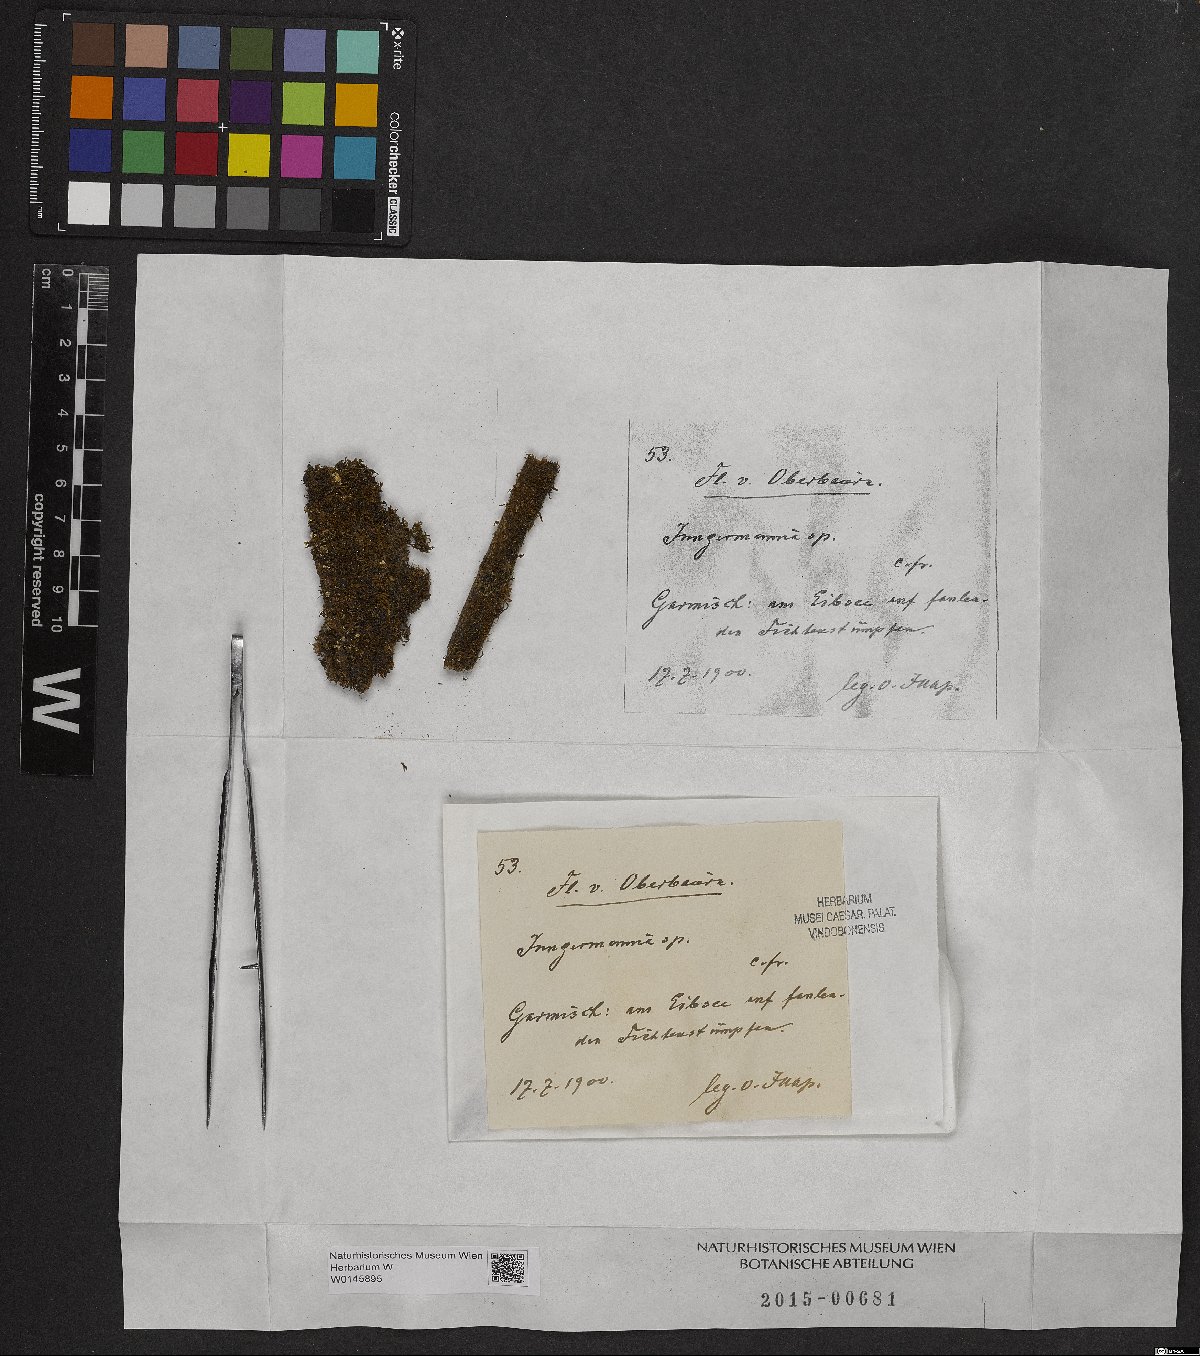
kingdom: Plantae
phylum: Marchantiophyta
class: Jungermanniopsida
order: Jungermanniales
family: Jungermanniaceae
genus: Jungermannia
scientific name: Jungermannia
